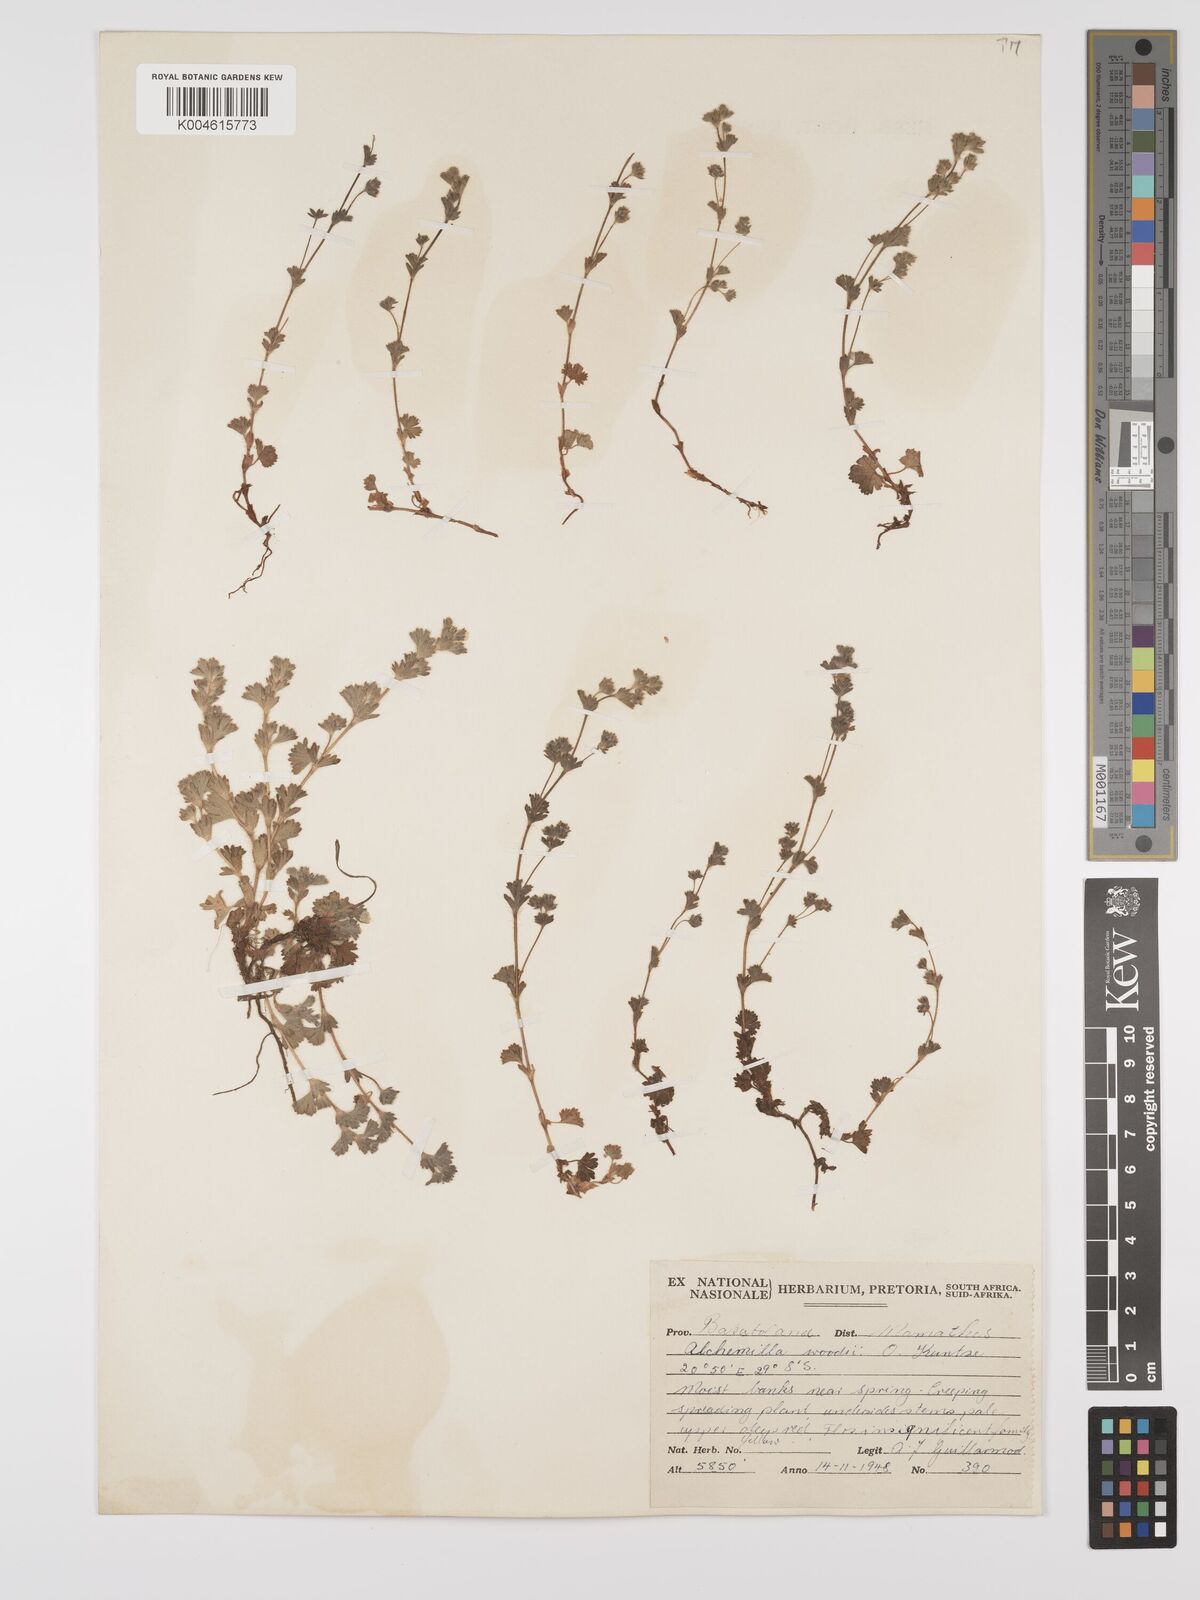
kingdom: Plantae
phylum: Tracheophyta
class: Magnoliopsida
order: Rosales
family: Rosaceae
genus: Alchemilla
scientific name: Alchemilla woodii
